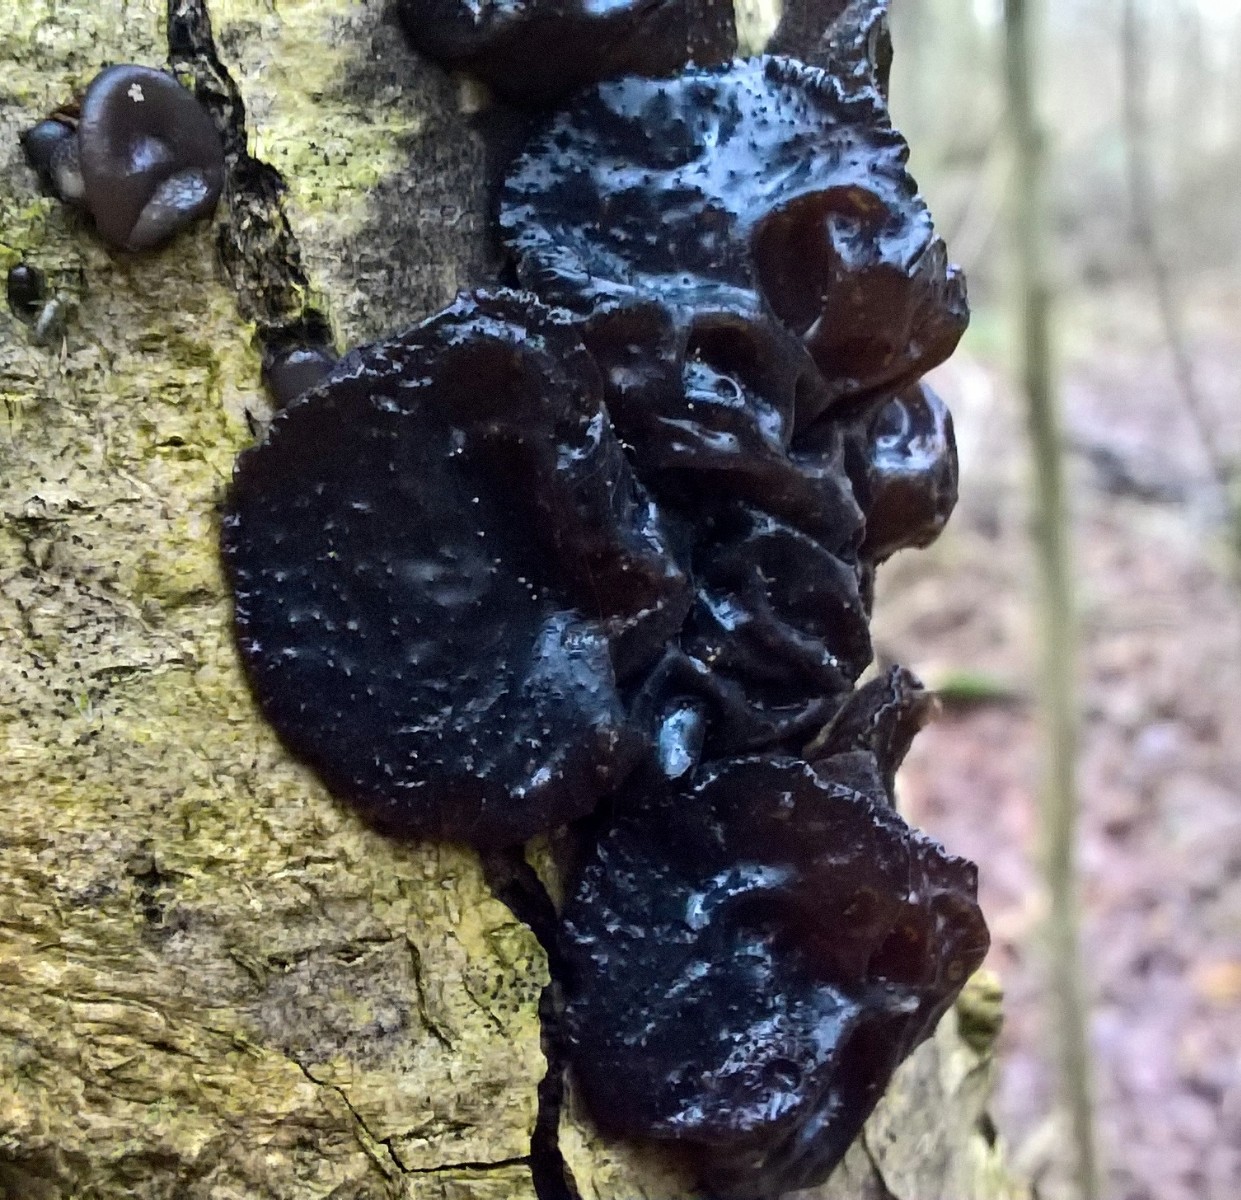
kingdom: Fungi
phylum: Basidiomycota
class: Agaricomycetes
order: Auriculariales
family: Auriculariaceae
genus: Exidia
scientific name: Exidia glandulosa
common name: ege-bævretop
